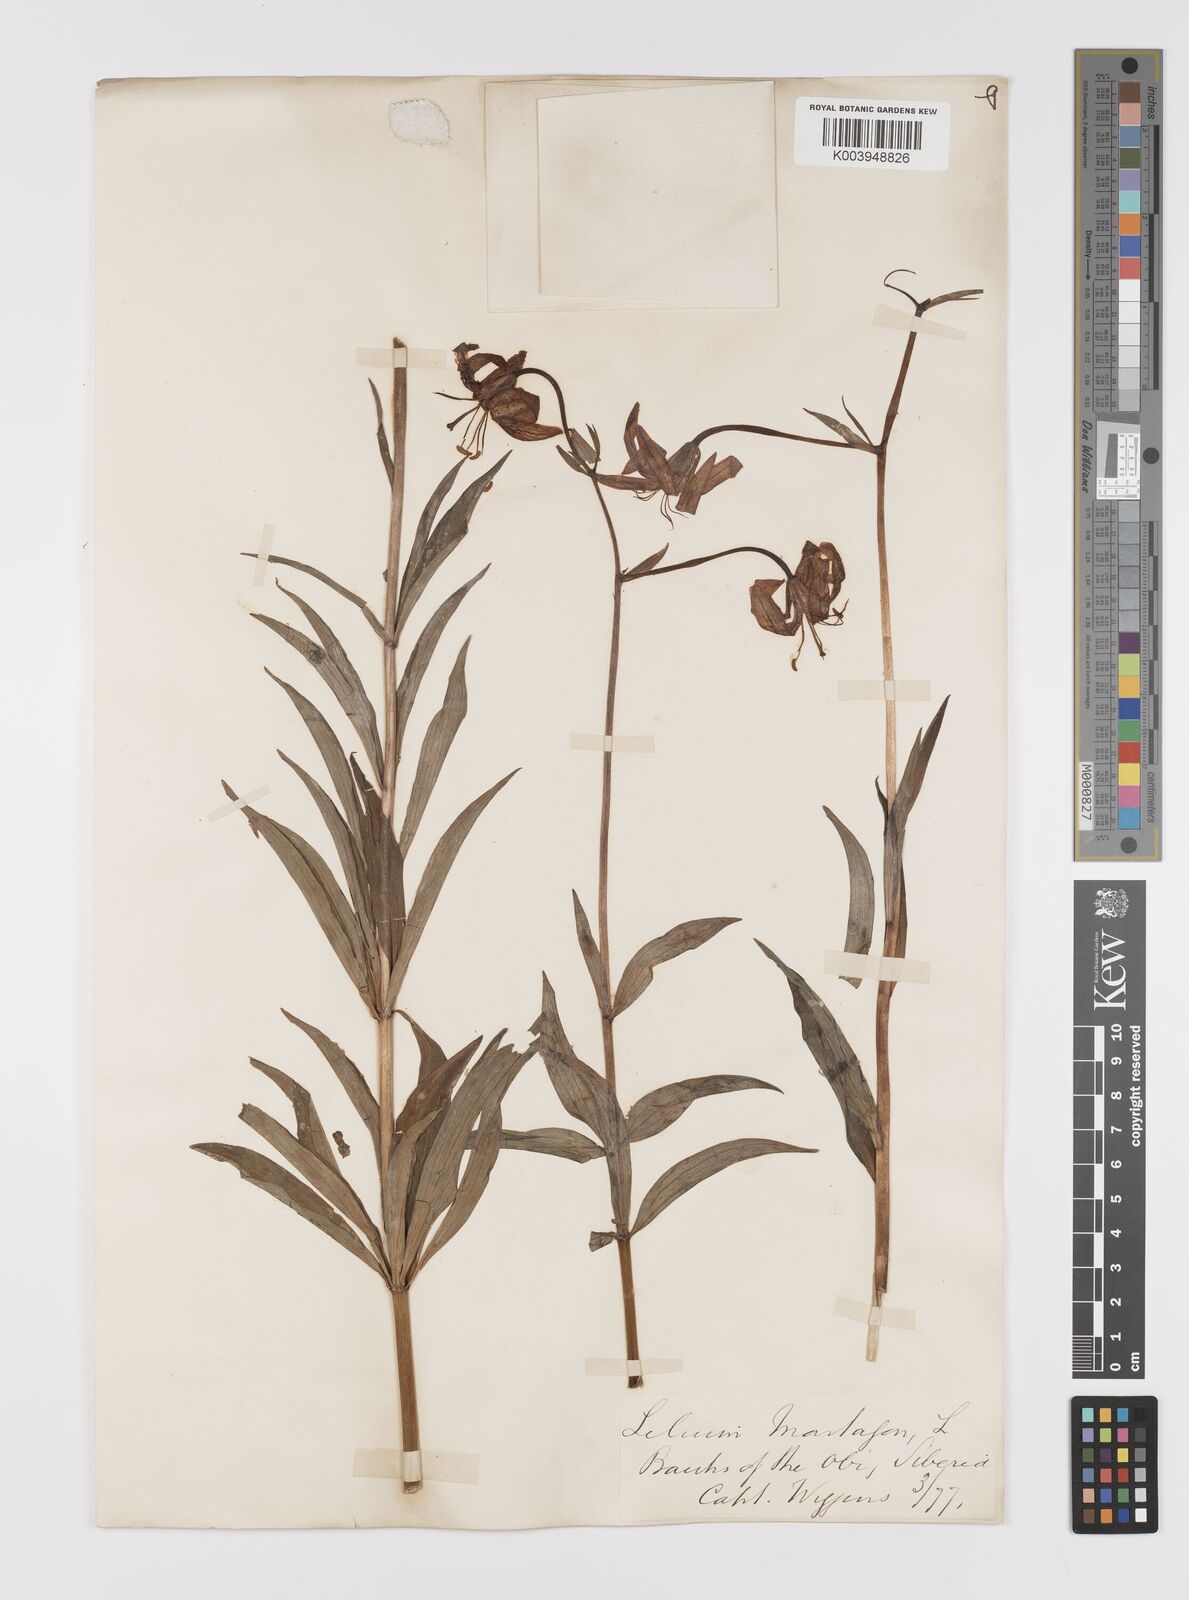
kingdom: Plantae
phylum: Tracheophyta
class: Liliopsida
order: Liliales
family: Liliaceae
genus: Lilium
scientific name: Lilium martagon
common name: Martagon lily
